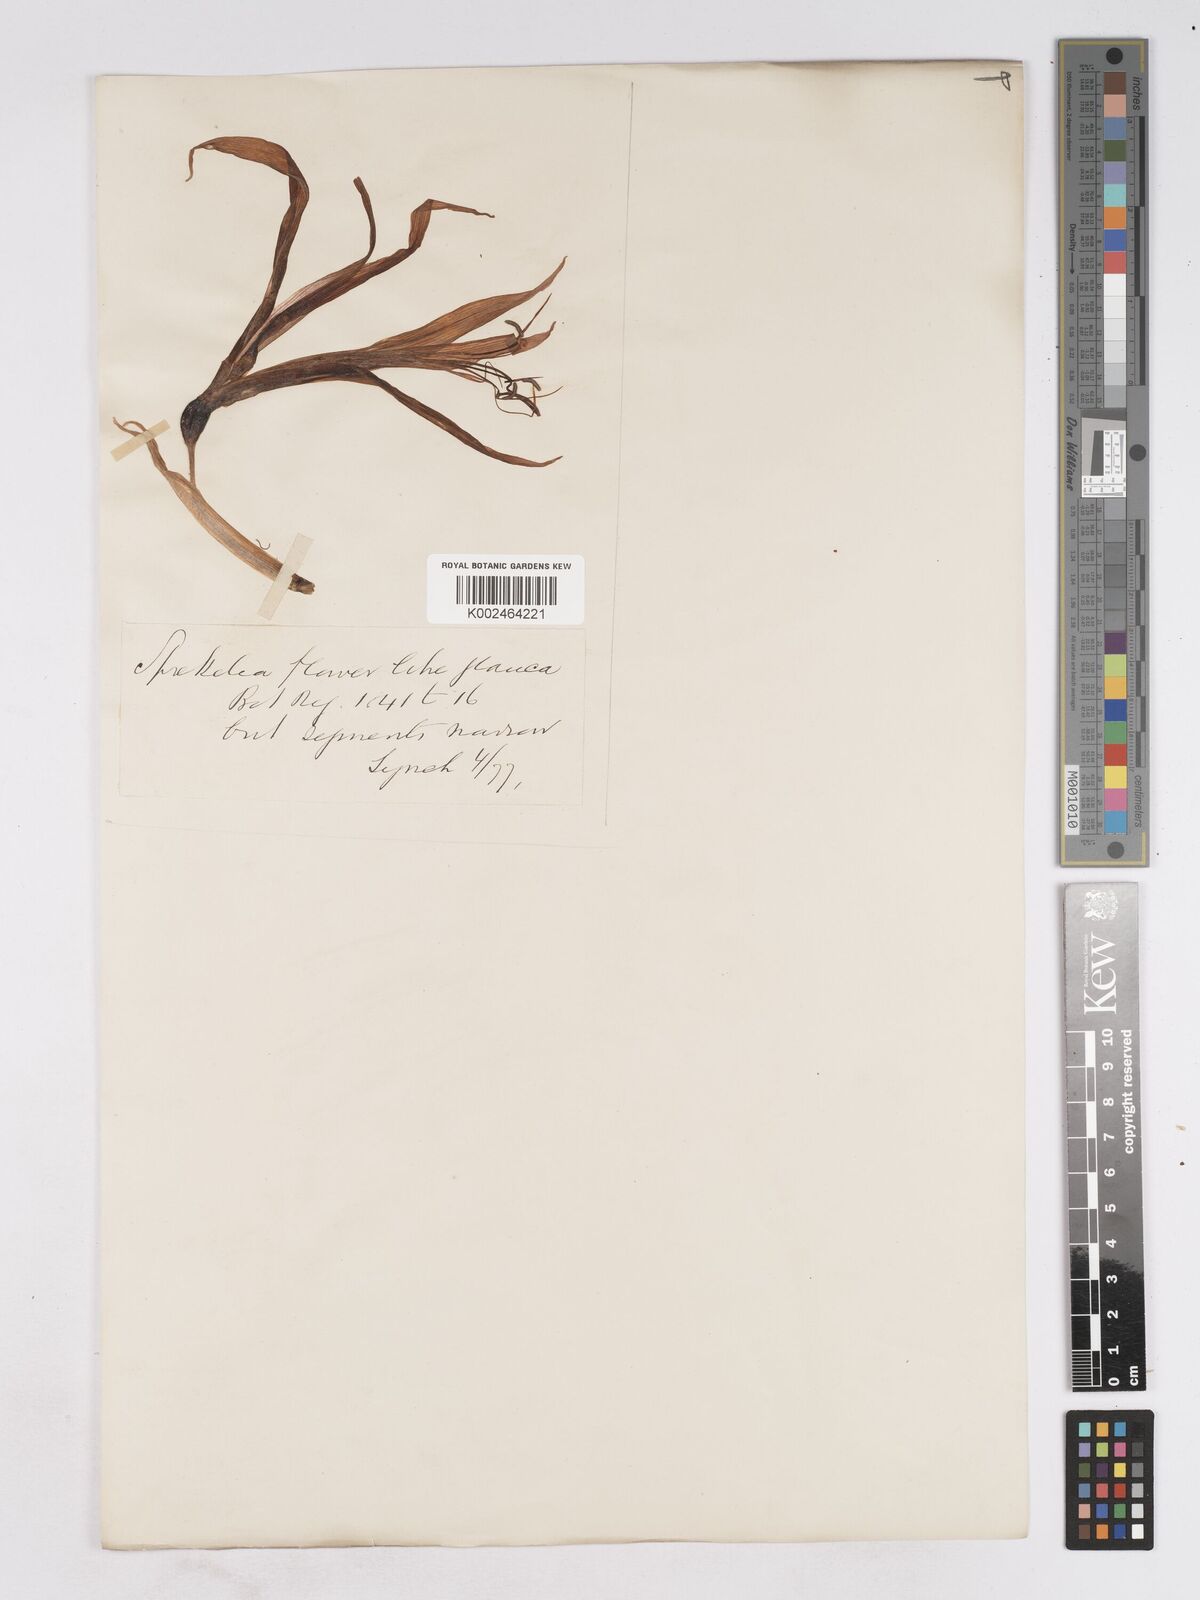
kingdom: Plantae
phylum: Tracheophyta
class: Liliopsida
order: Asparagales
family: Amaryllidaceae
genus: Sprekelia
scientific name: Sprekelia formosissima
